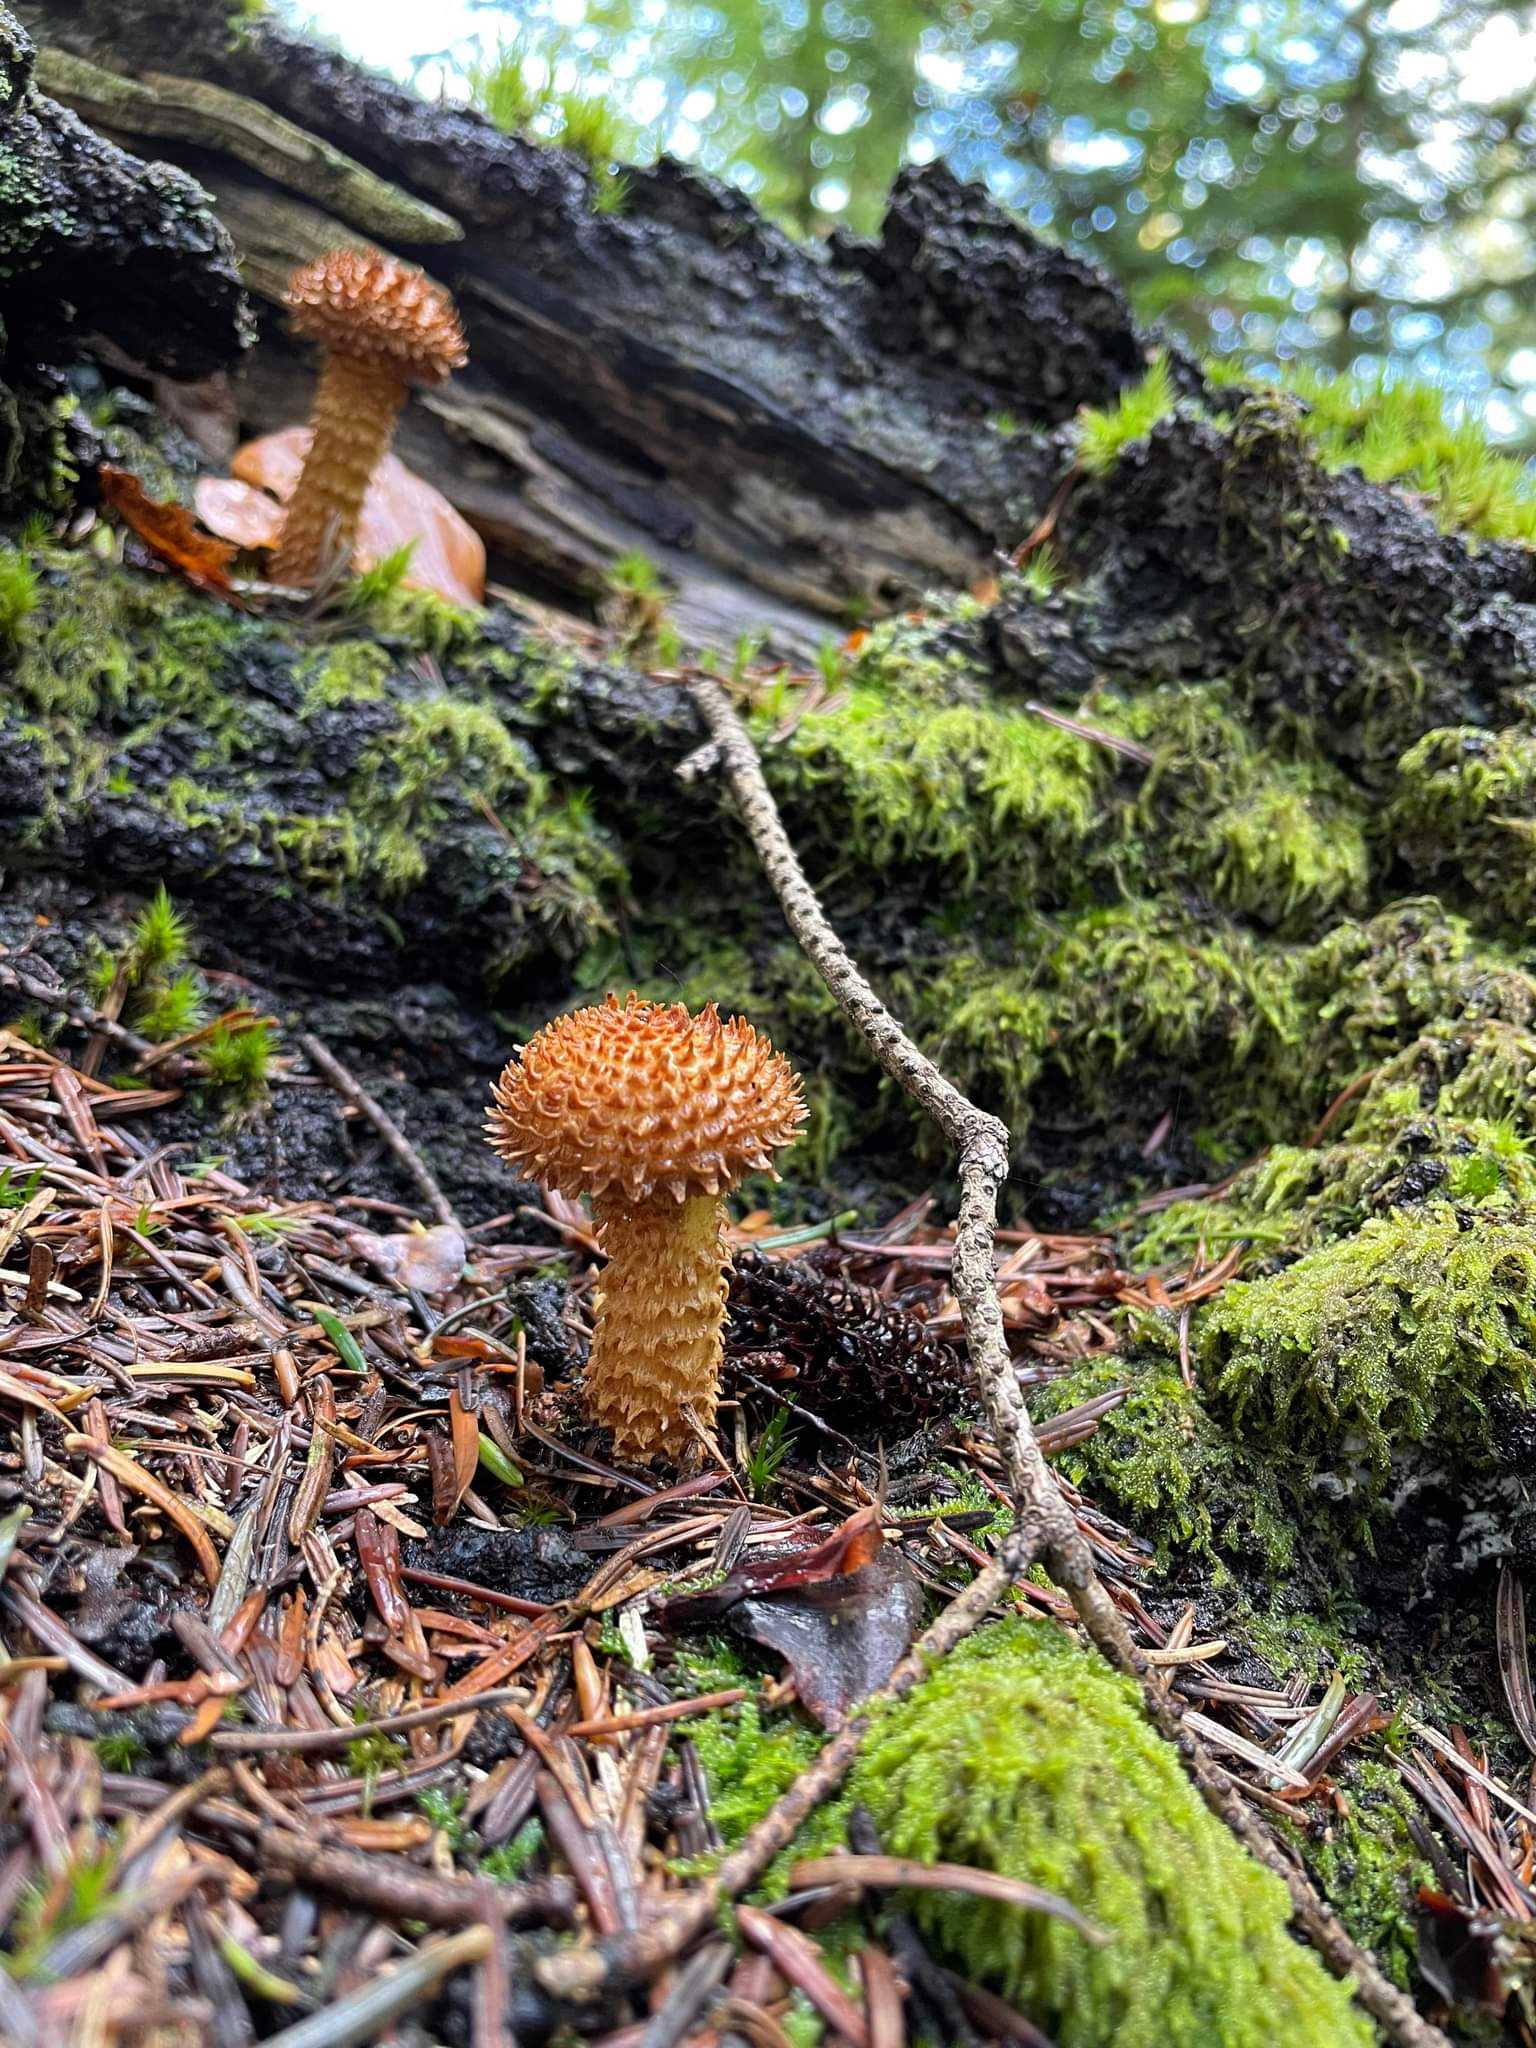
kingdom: Fungi
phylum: Basidiomycota
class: Agaricomycetes
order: Agaricales
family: Strophariaceae
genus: Pholiota
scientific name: Pholiota squarrosa
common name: krumskællet skælhat
